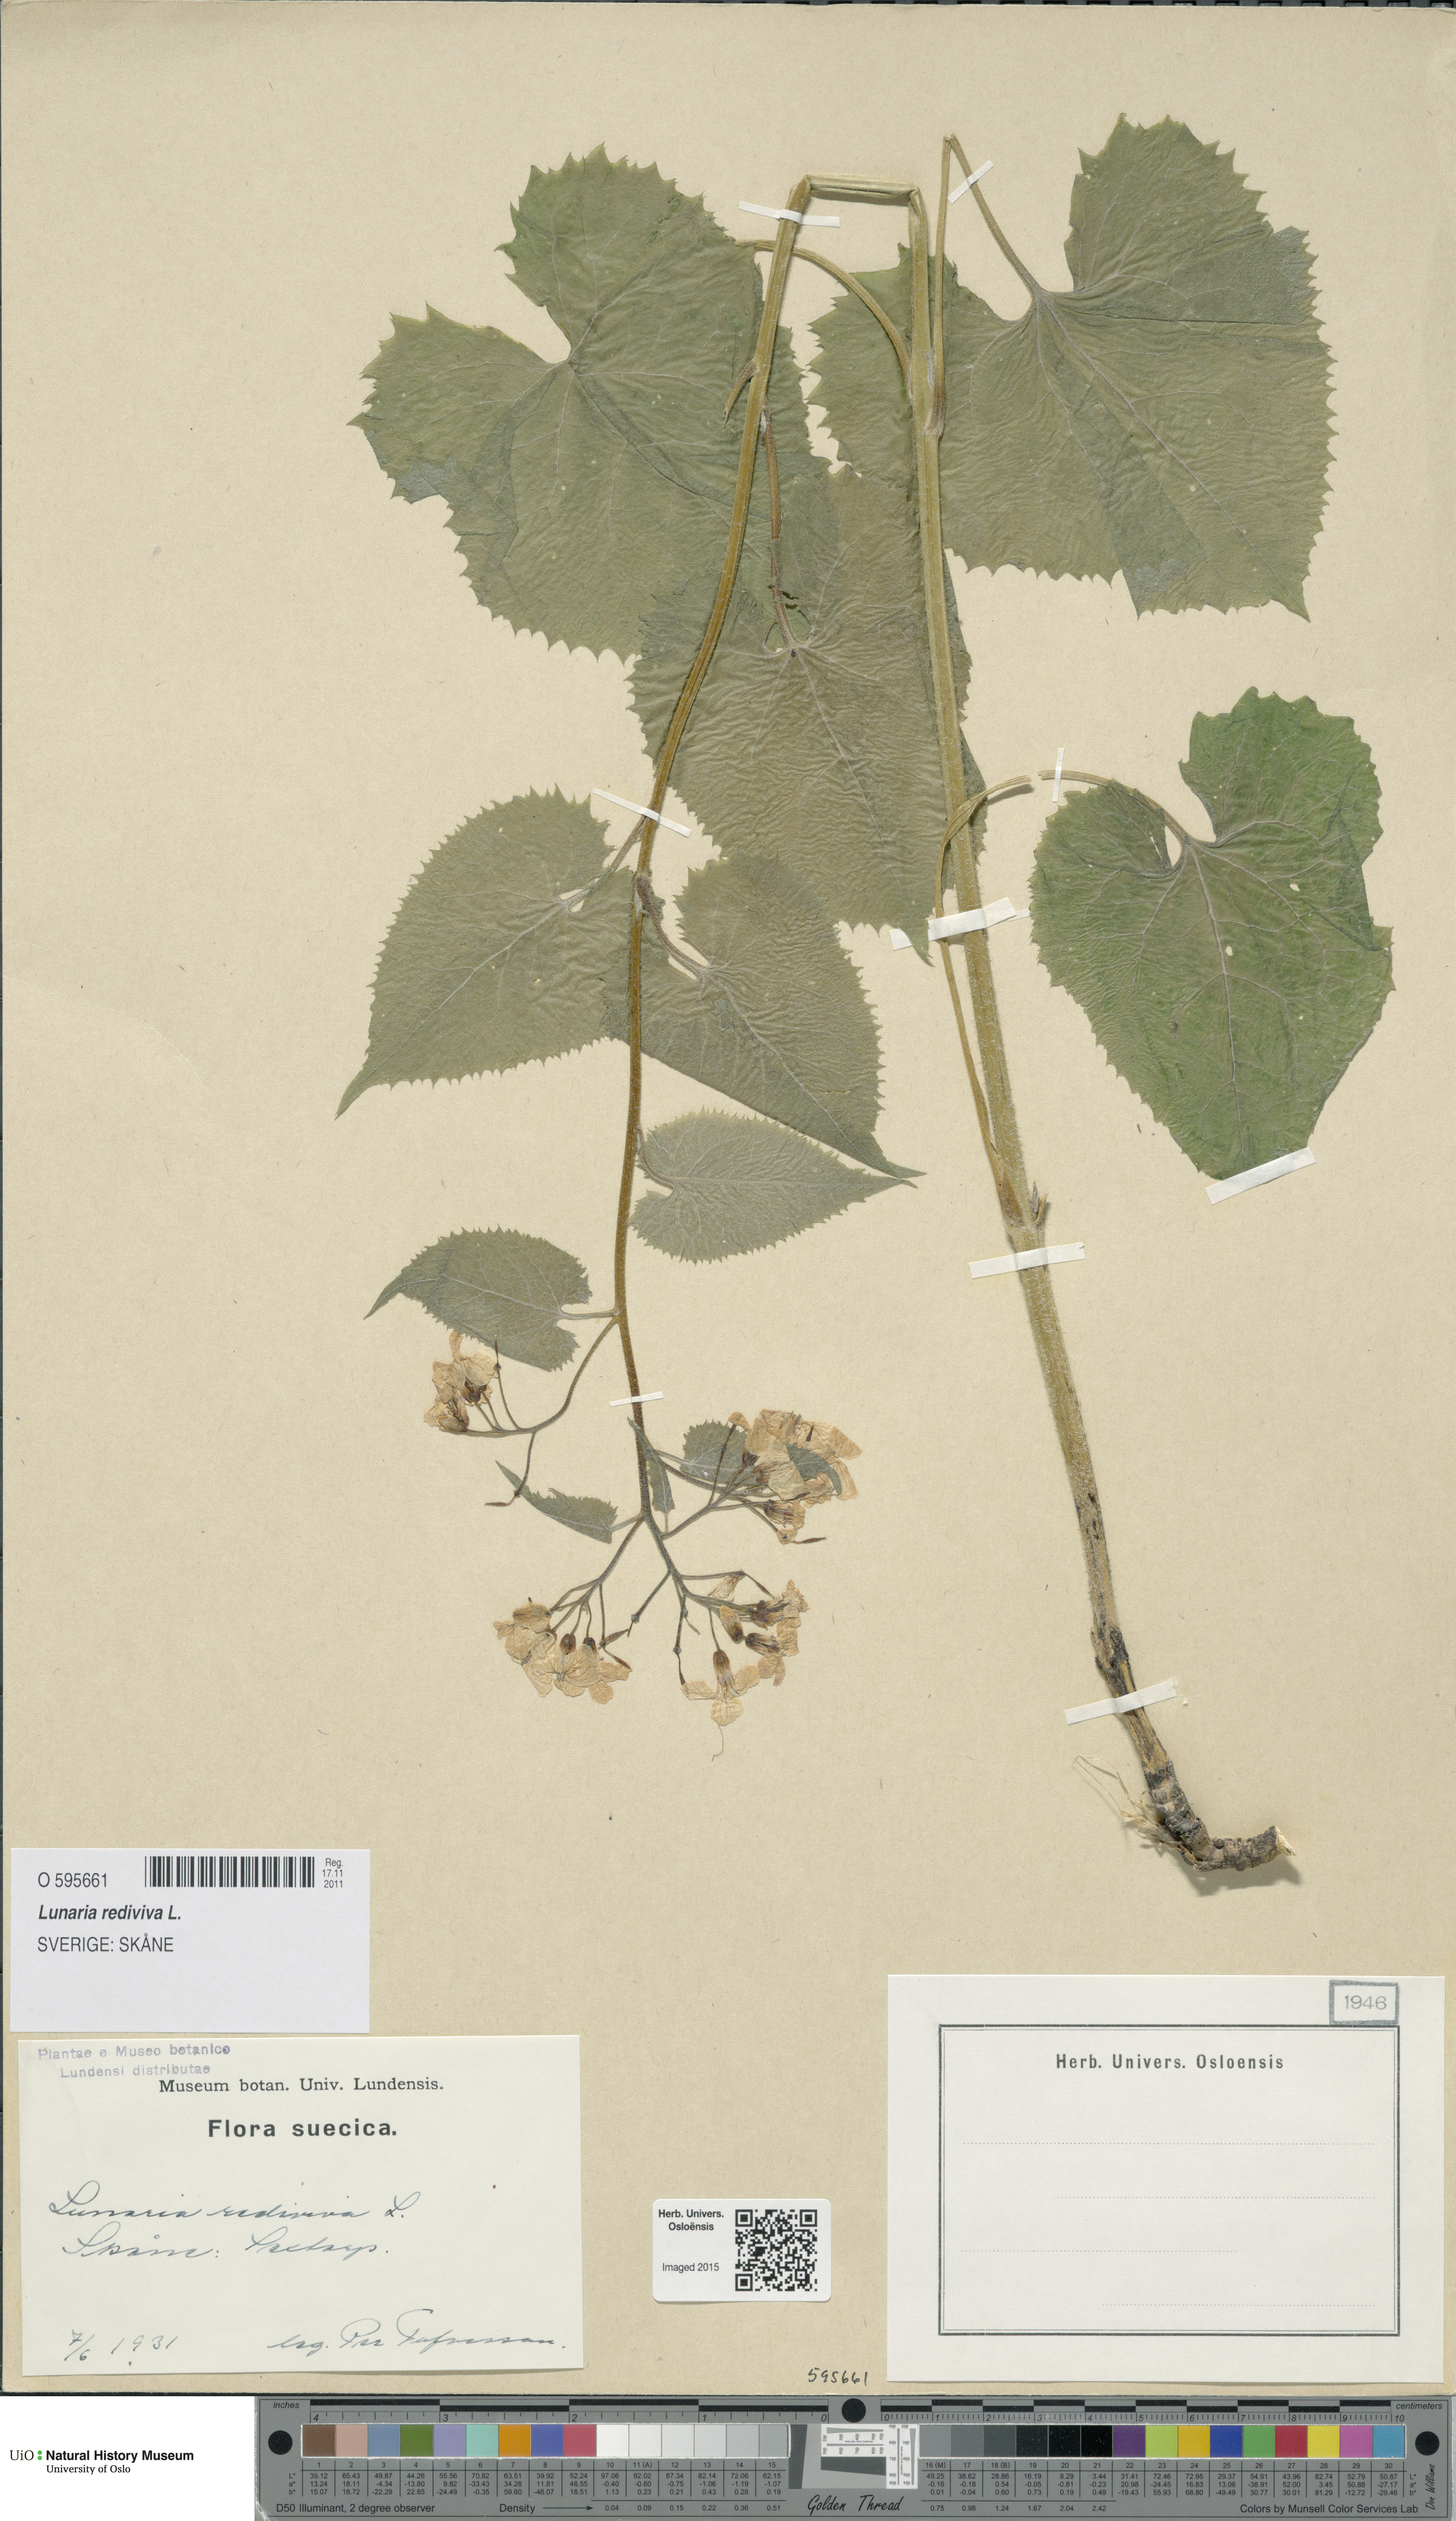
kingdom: Plantae
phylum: Tracheophyta
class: Magnoliopsida
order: Brassicales
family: Brassicaceae
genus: Lunaria
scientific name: Lunaria rediviva
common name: Perennial honesty
